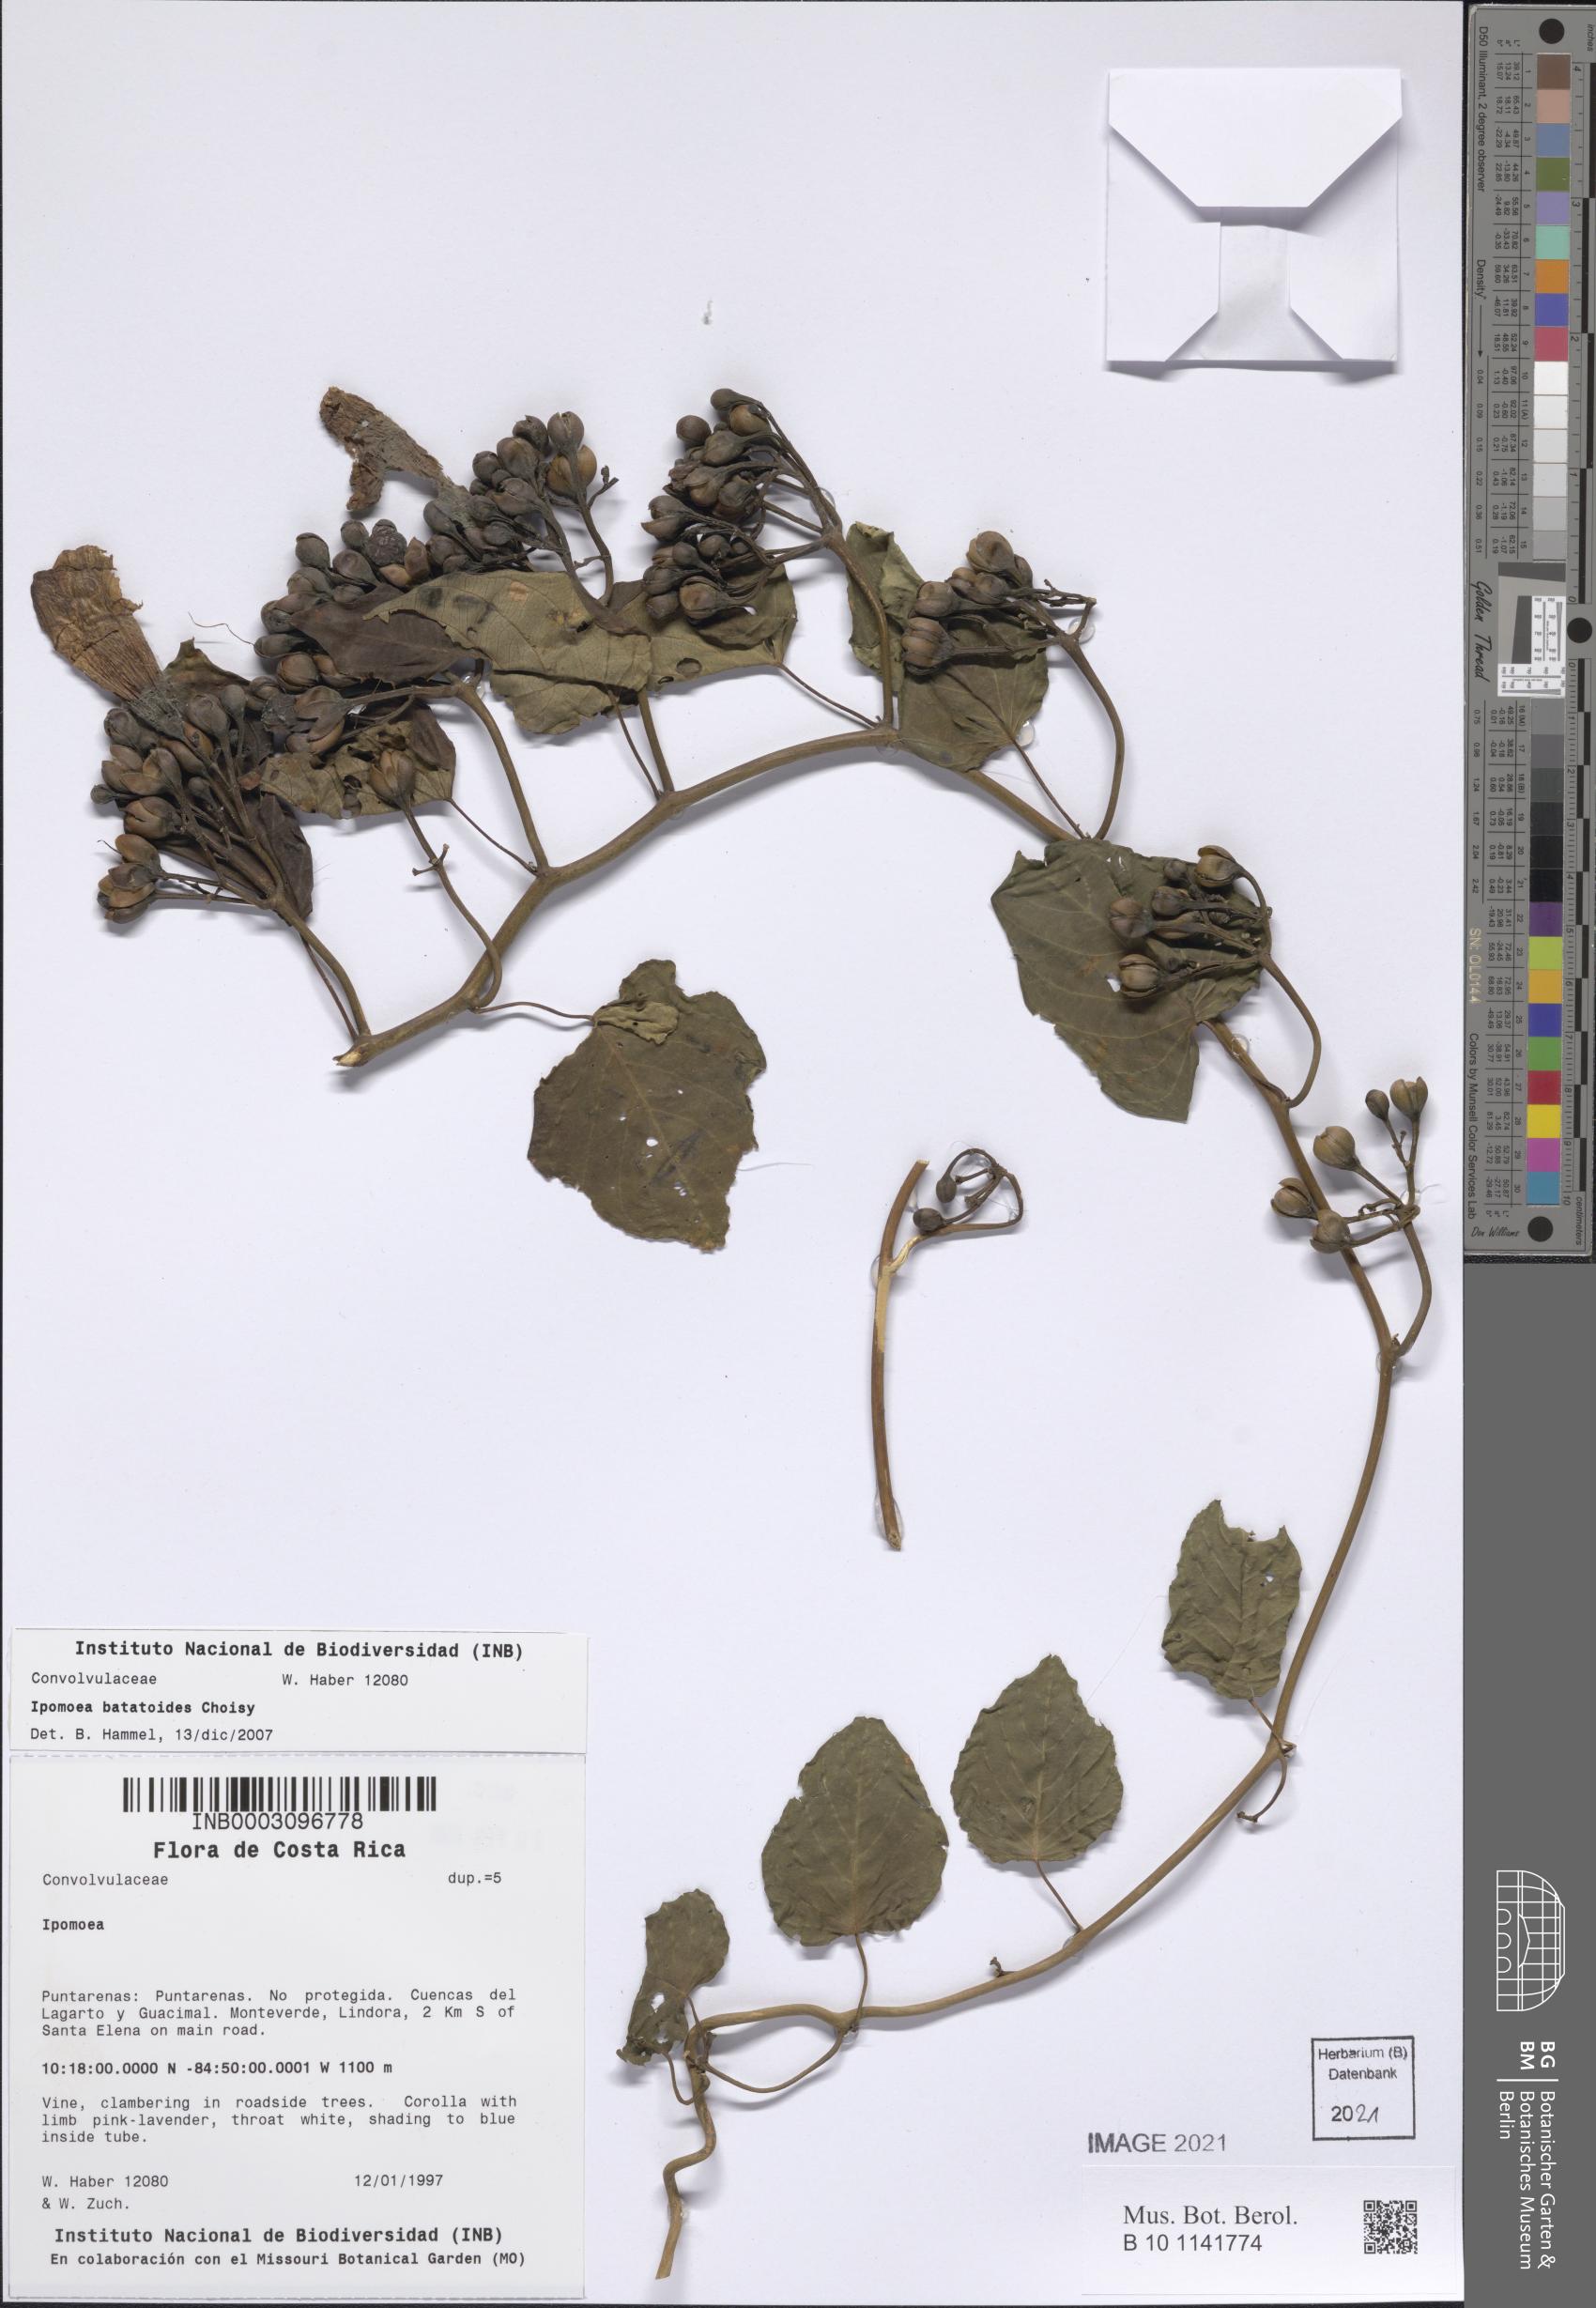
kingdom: Plantae
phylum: Tracheophyta
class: Magnoliopsida
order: Solanales
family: Convolvulaceae
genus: Ipomoea
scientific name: Ipomoea batatoides
